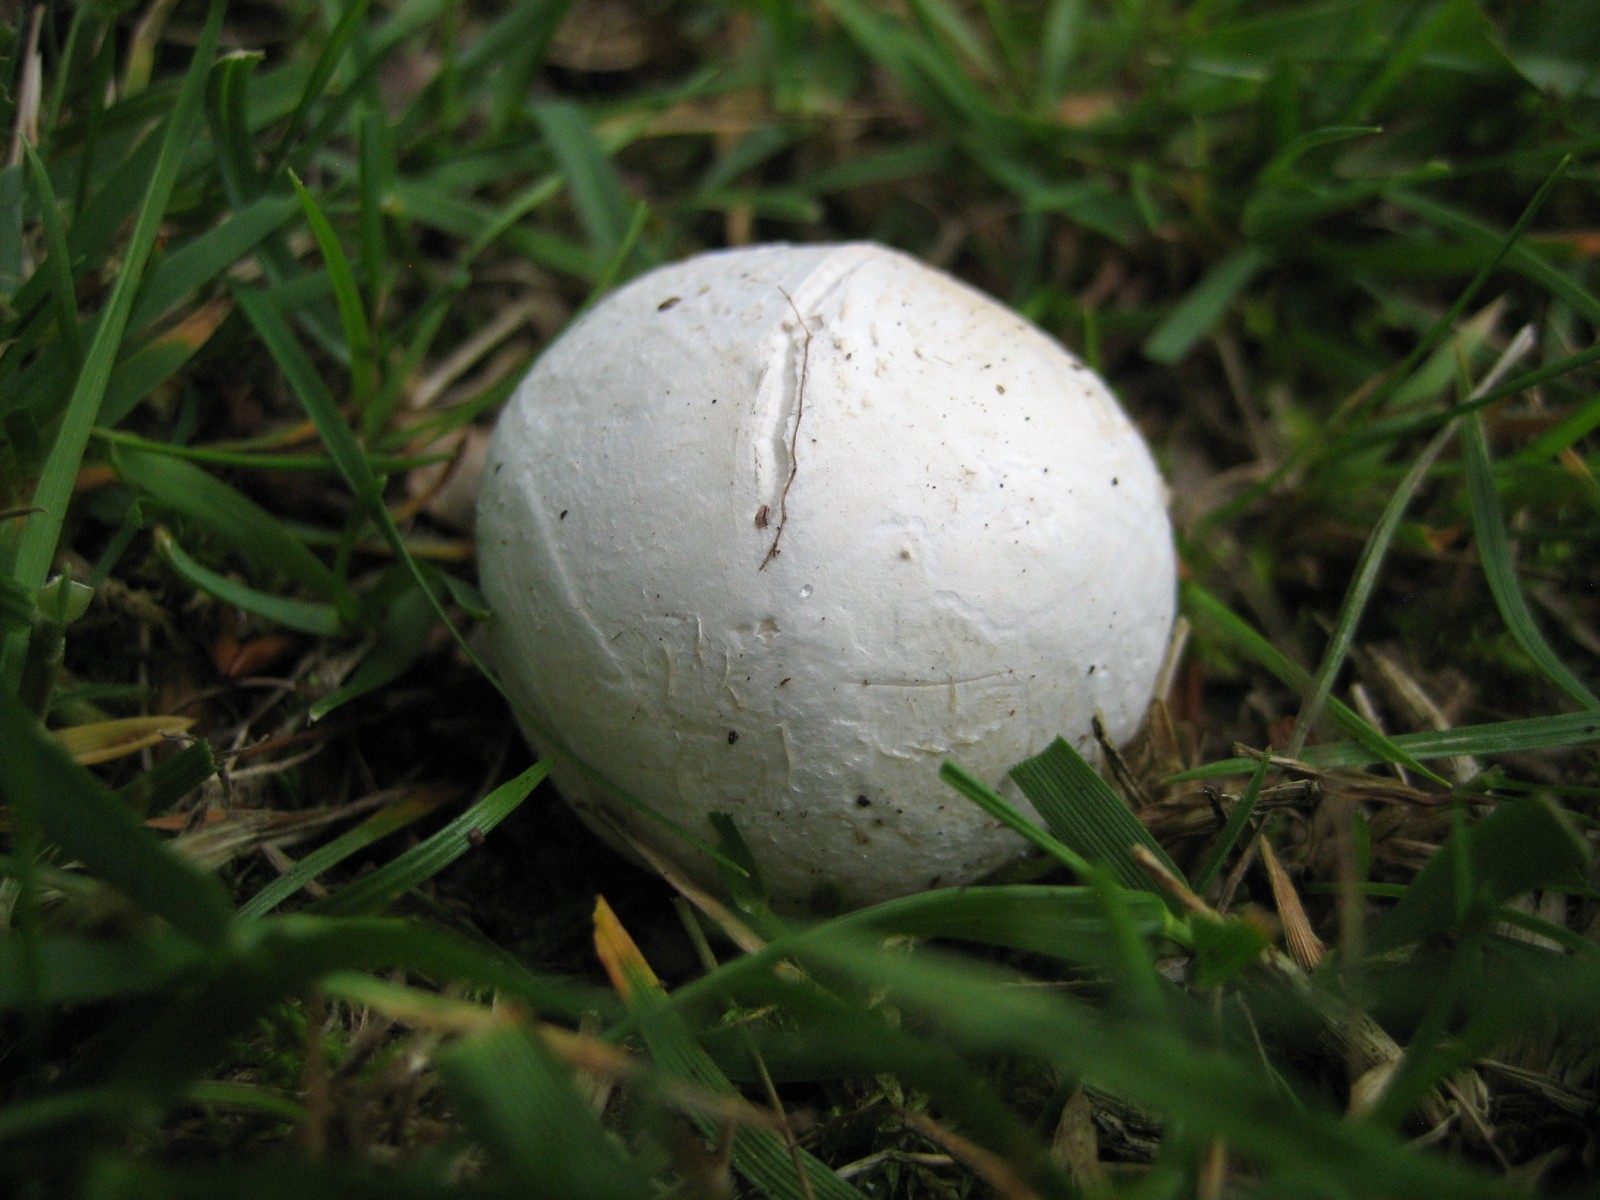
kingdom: Fungi
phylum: Basidiomycota
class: Agaricomycetes
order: Agaricales
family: Lycoperdaceae
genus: Bovista
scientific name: Bovista
